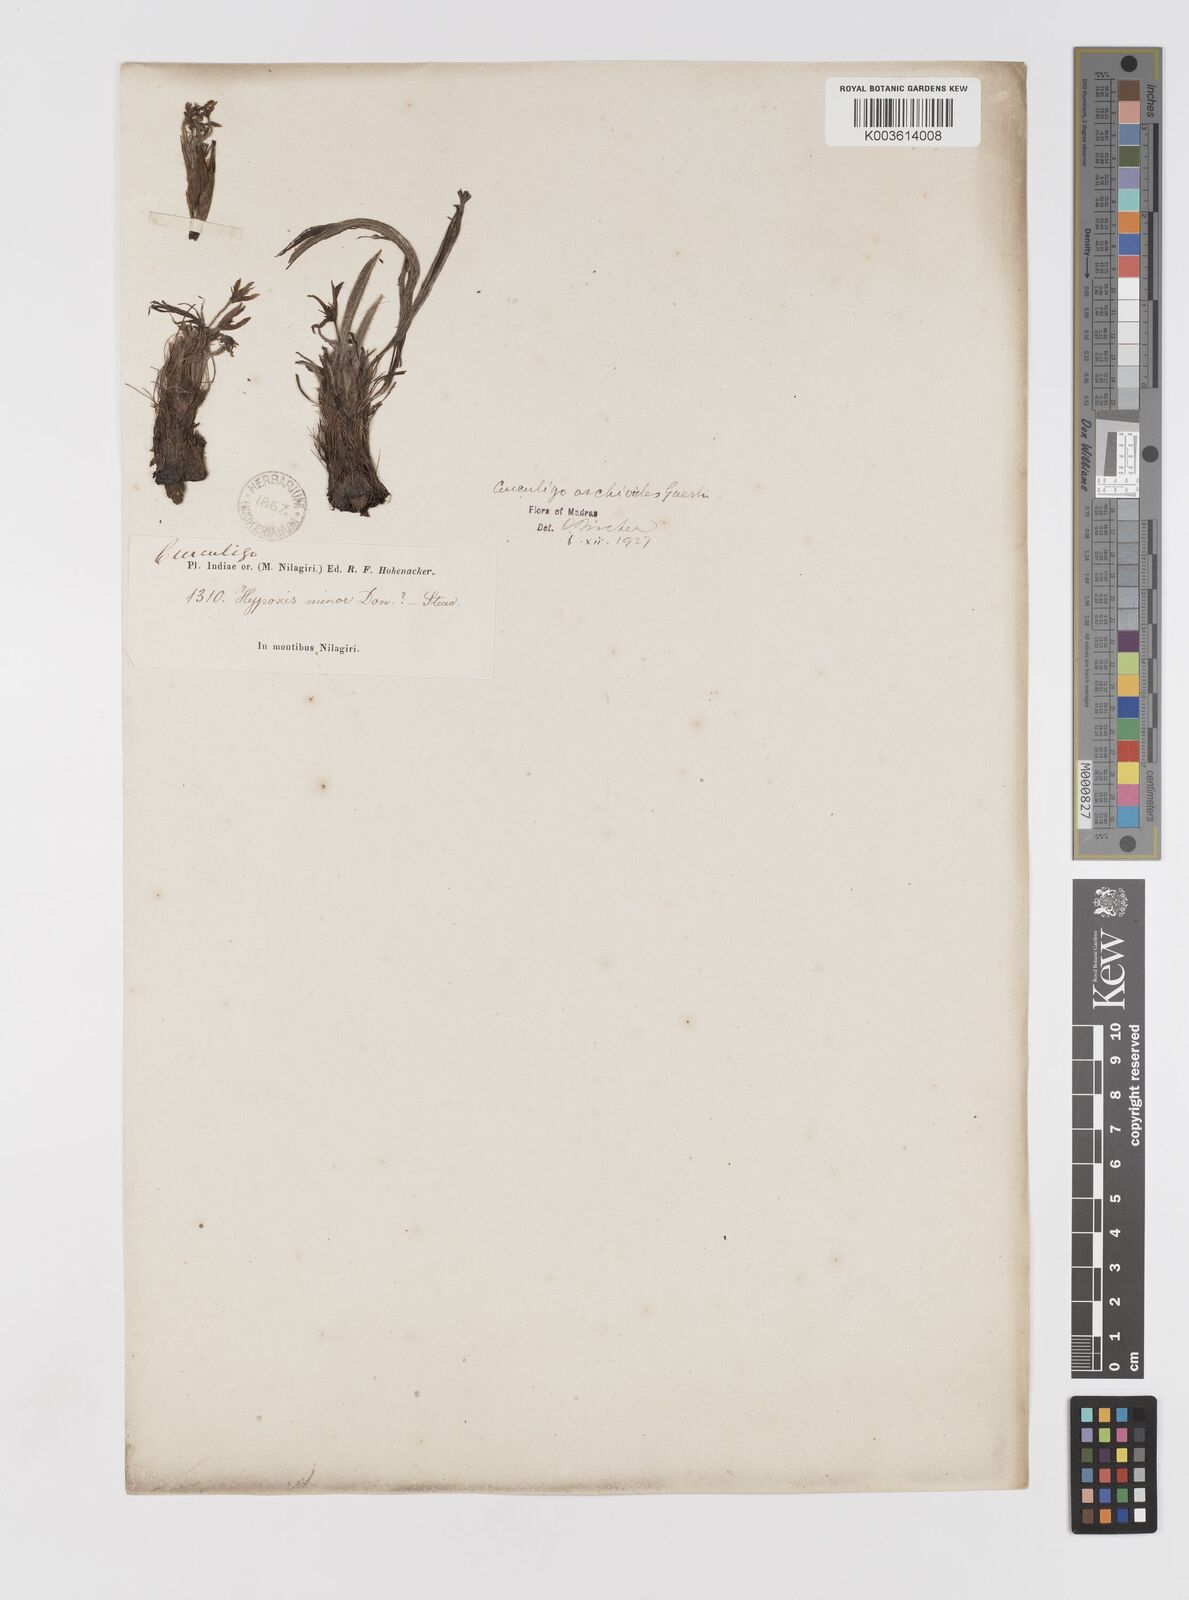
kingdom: Plantae
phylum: Tracheophyta
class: Liliopsida
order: Asparagales
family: Hypoxidaceae
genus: Curculigo
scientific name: Curculigo orchioides
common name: Golden eye-grass
